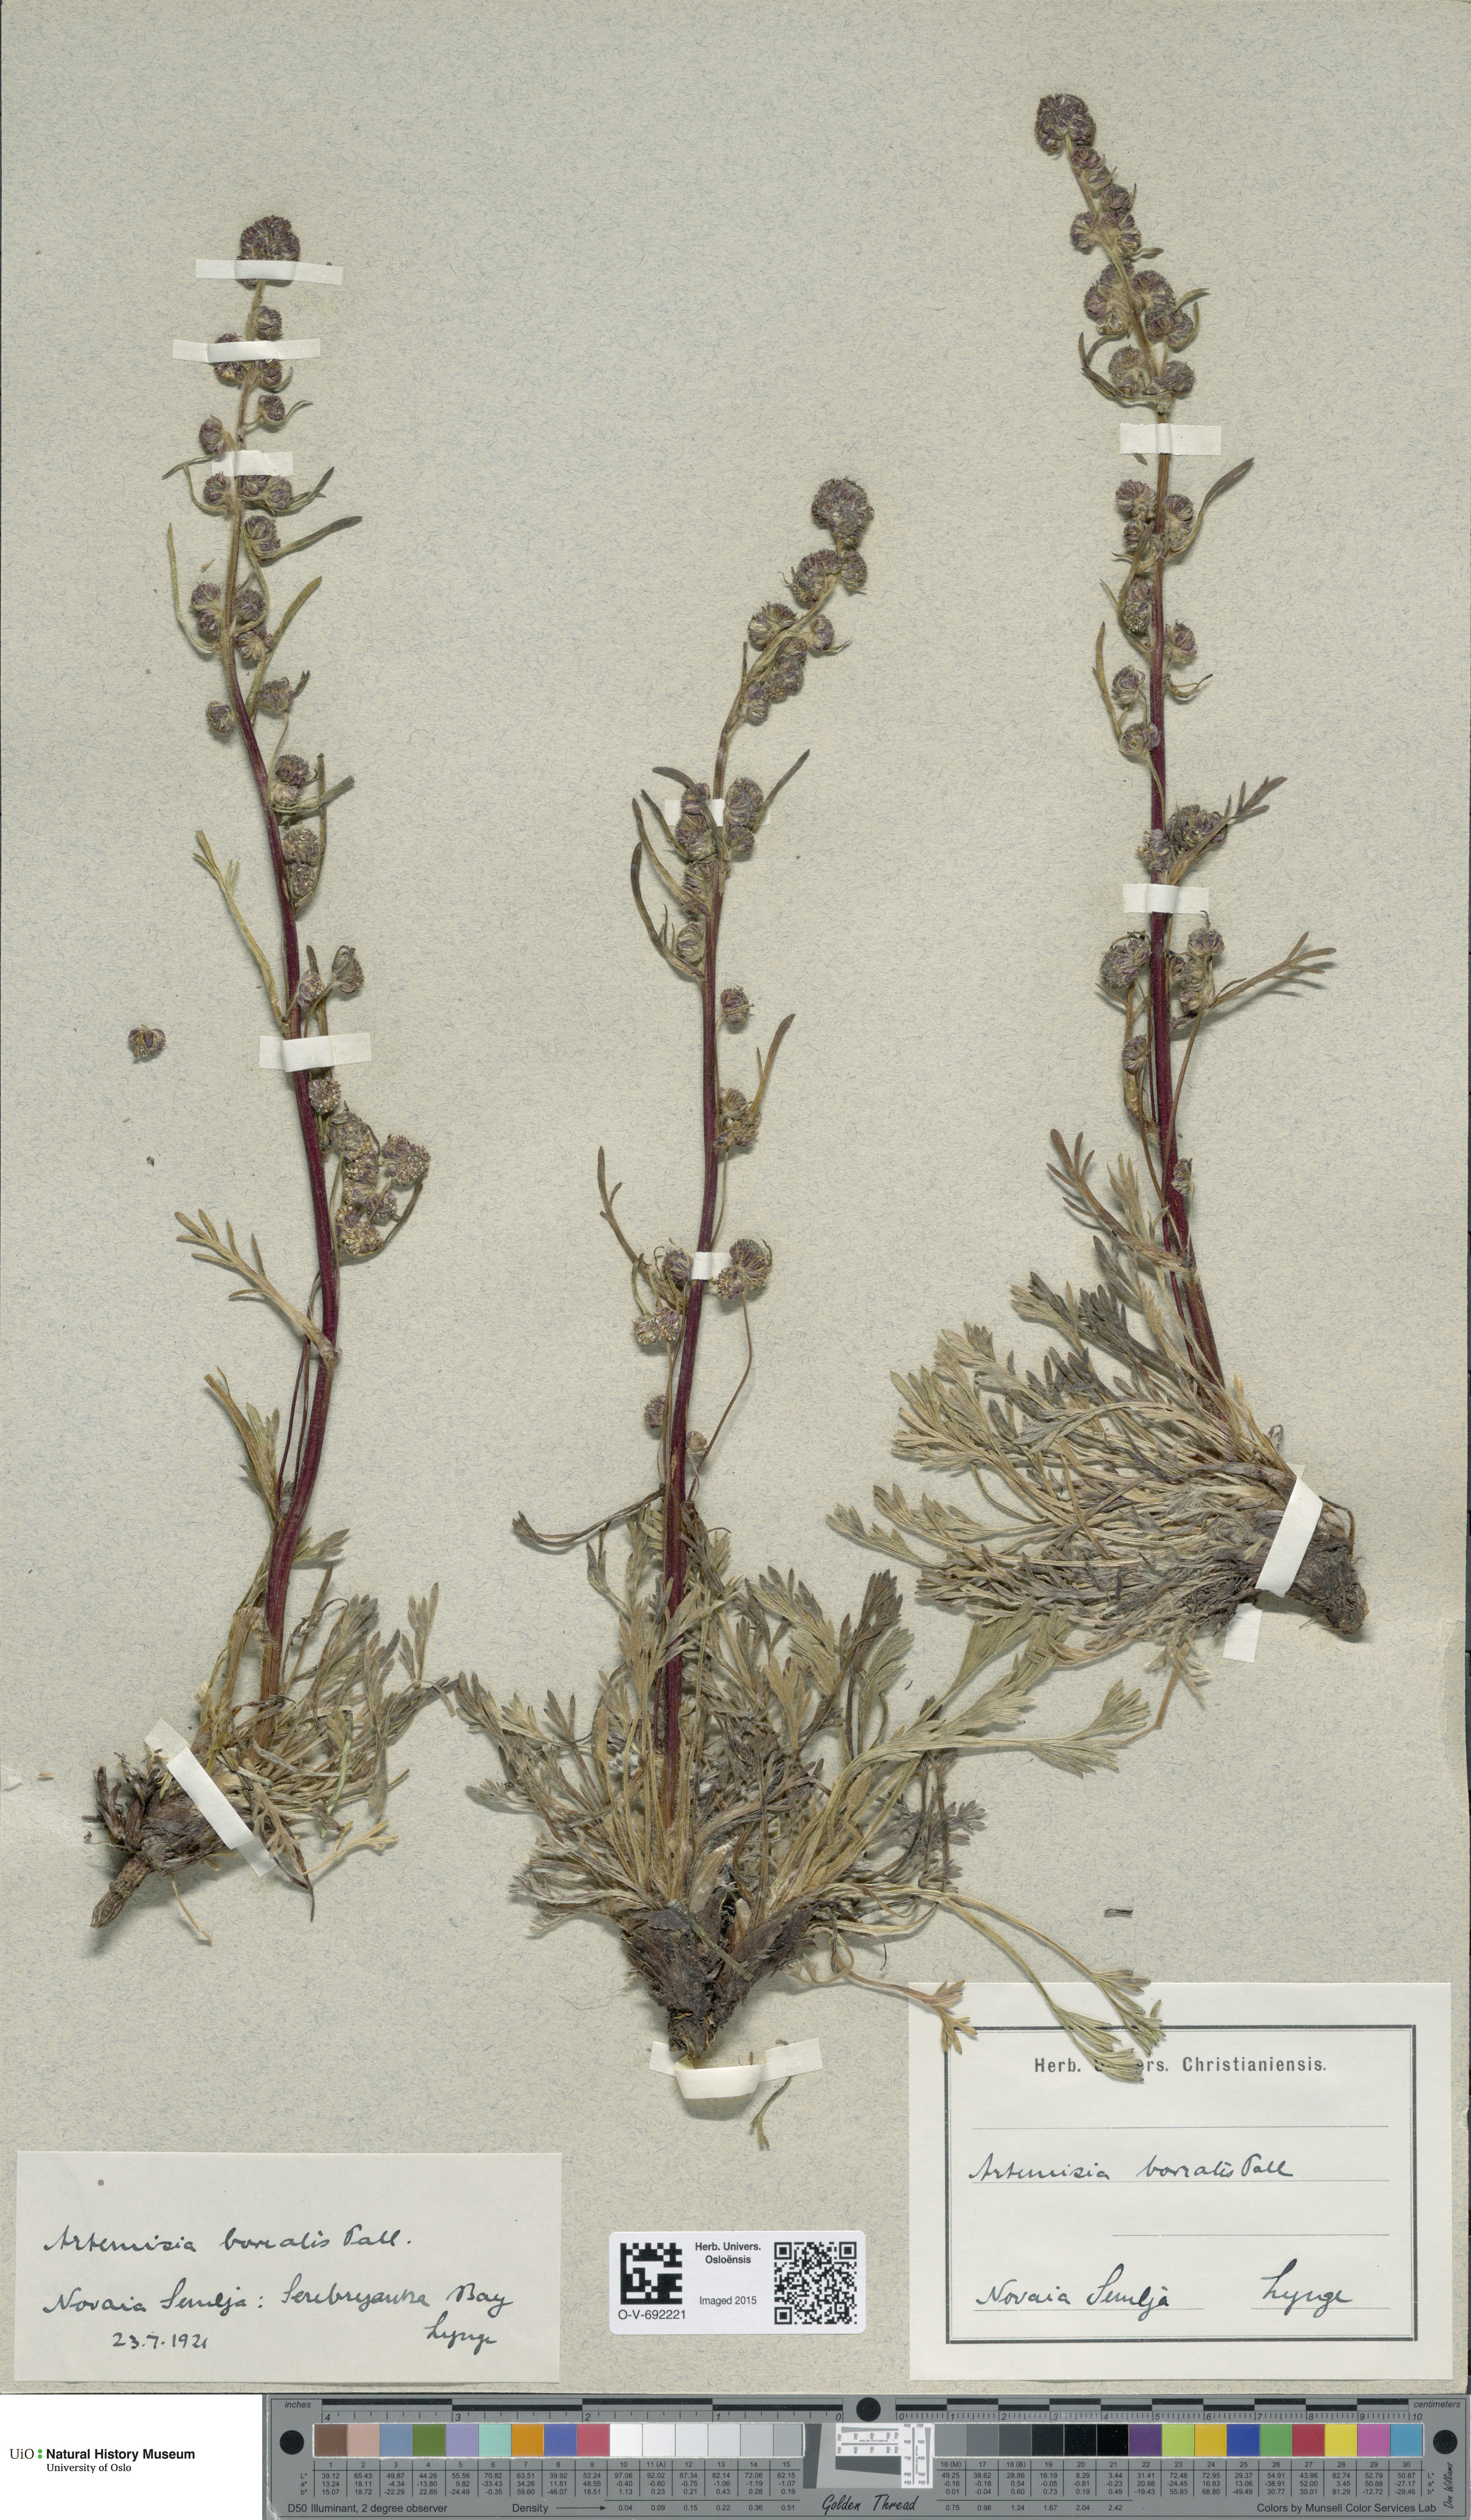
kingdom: Plantae
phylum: Tracheophyta
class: Magnoliopsida
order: Asterales
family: Asteraceae
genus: Artemisia
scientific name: Artemisia borealis
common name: Boreal sage
